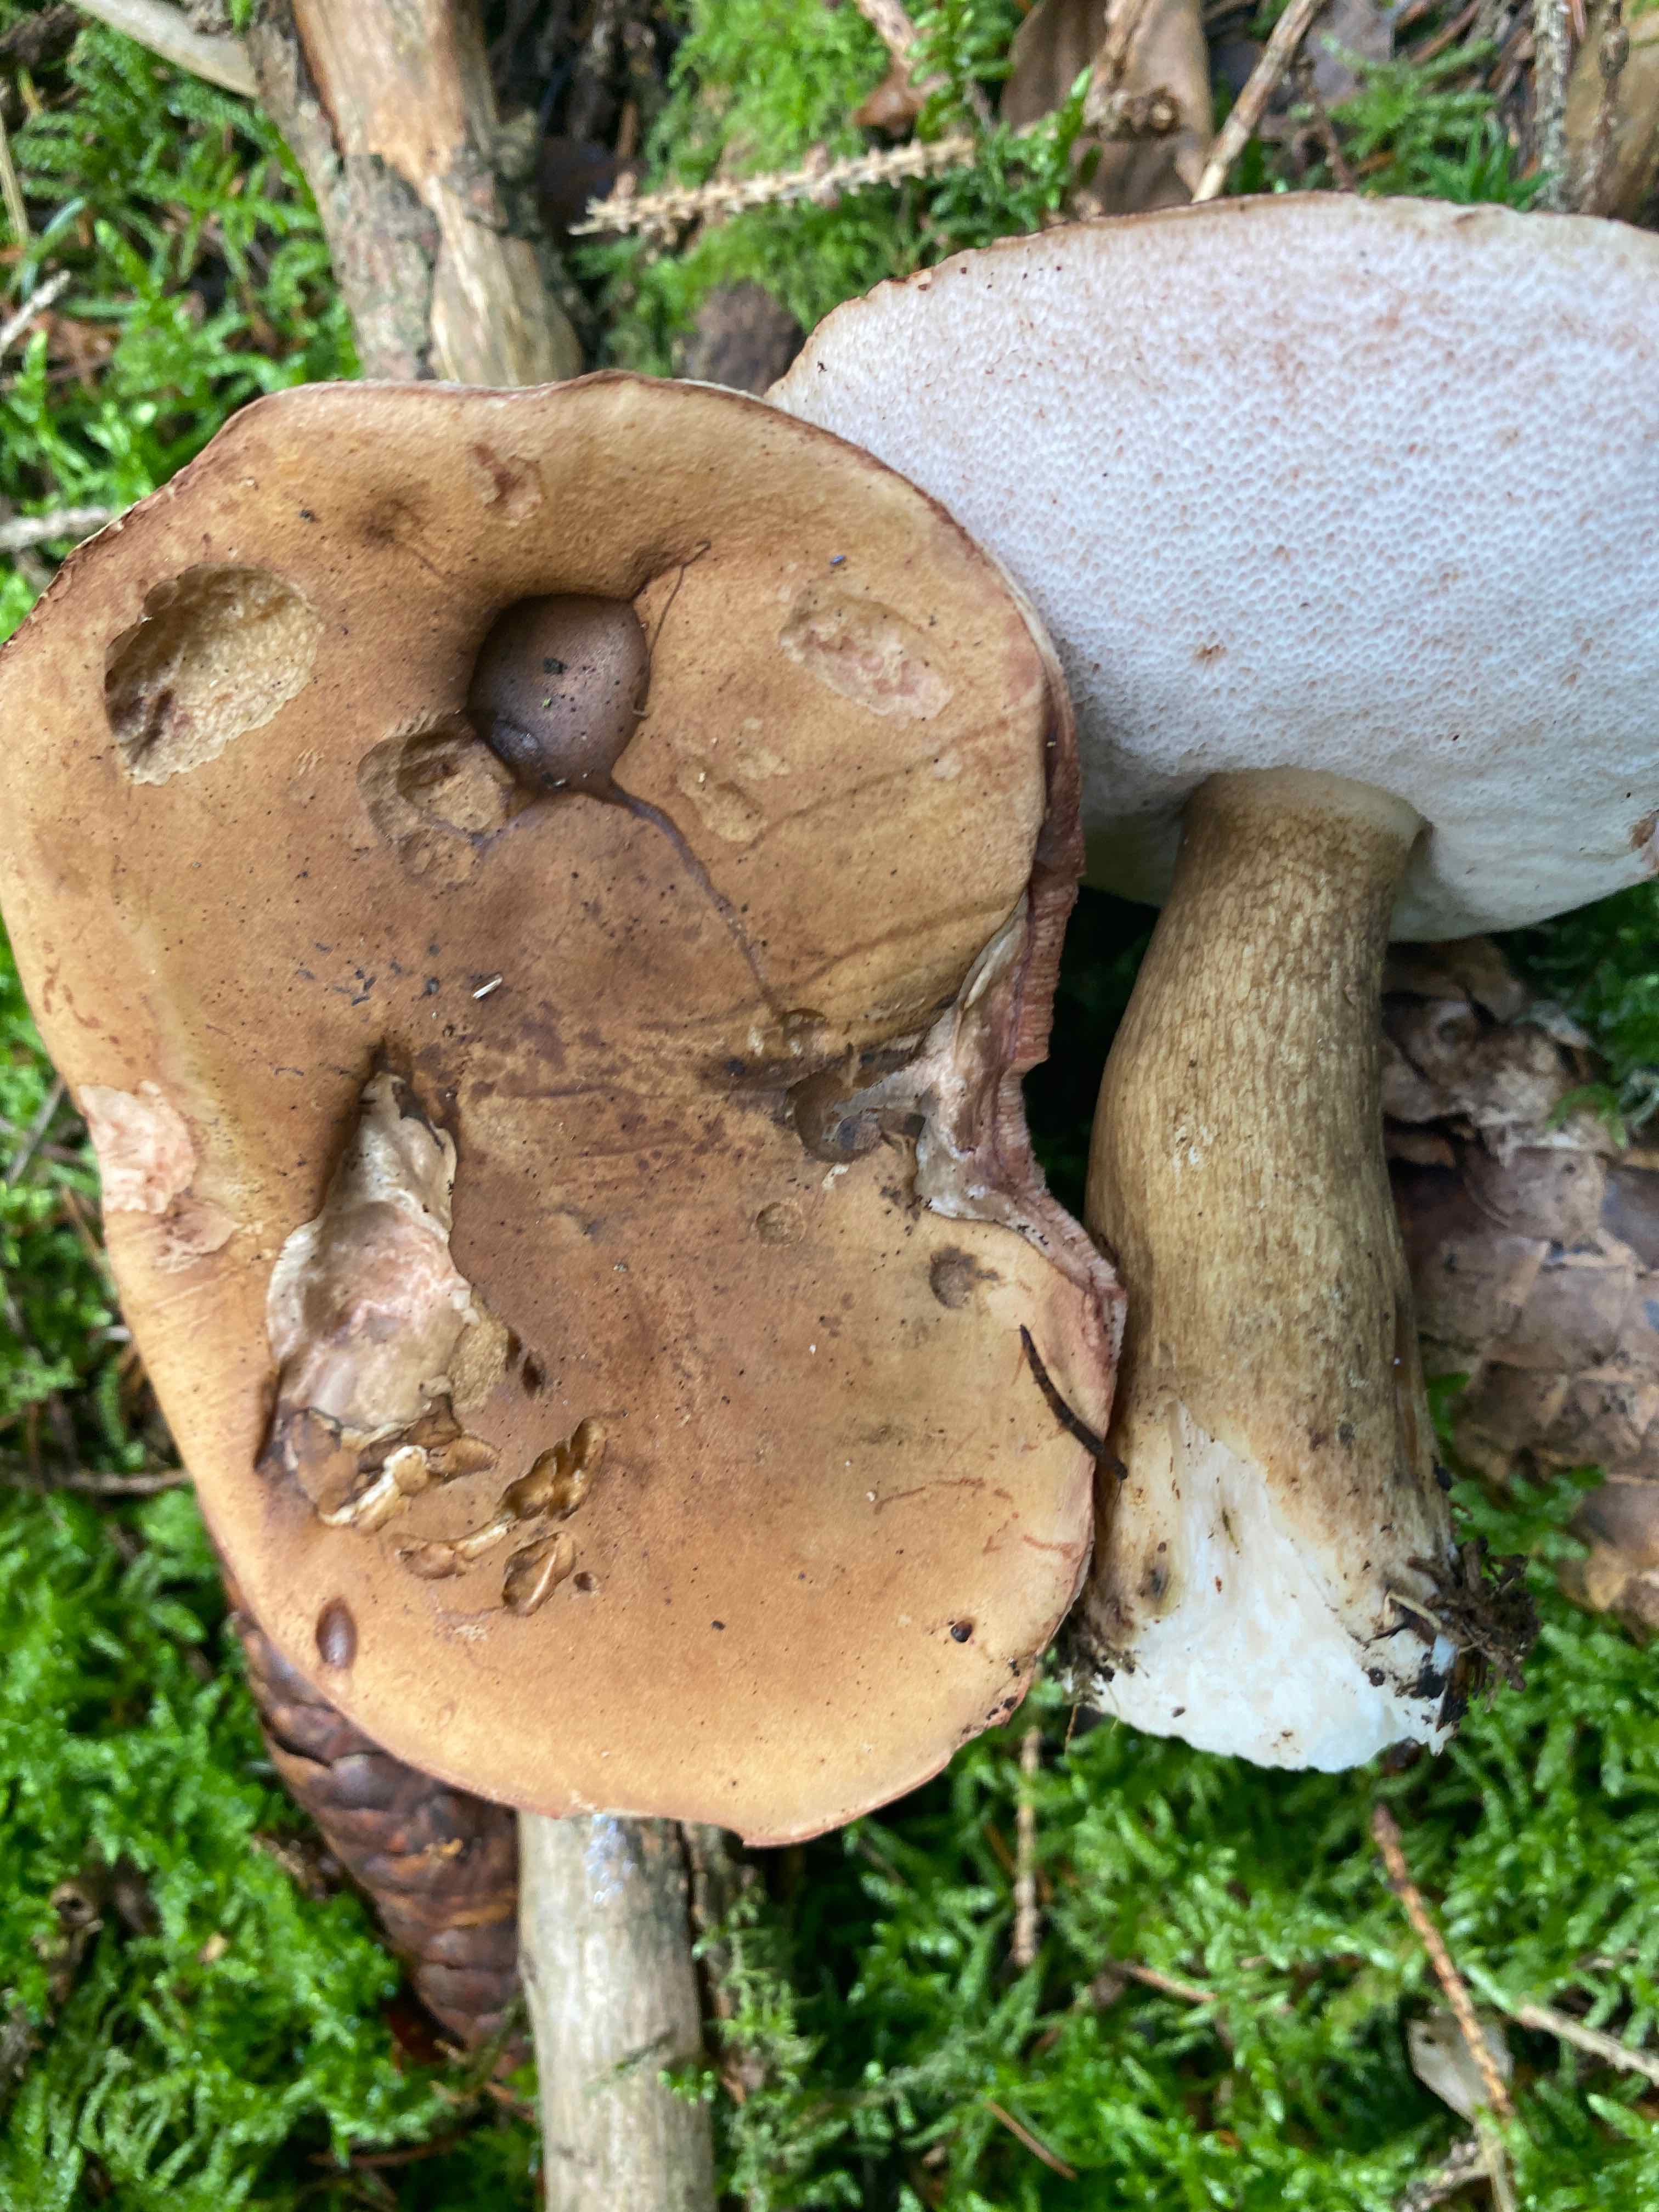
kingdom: Fungi
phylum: Basidiomycota
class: Agaricomycetes
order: Boletales
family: Boletaceae
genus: Tylopilus
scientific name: Tylopilus felleus
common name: galderørhat
